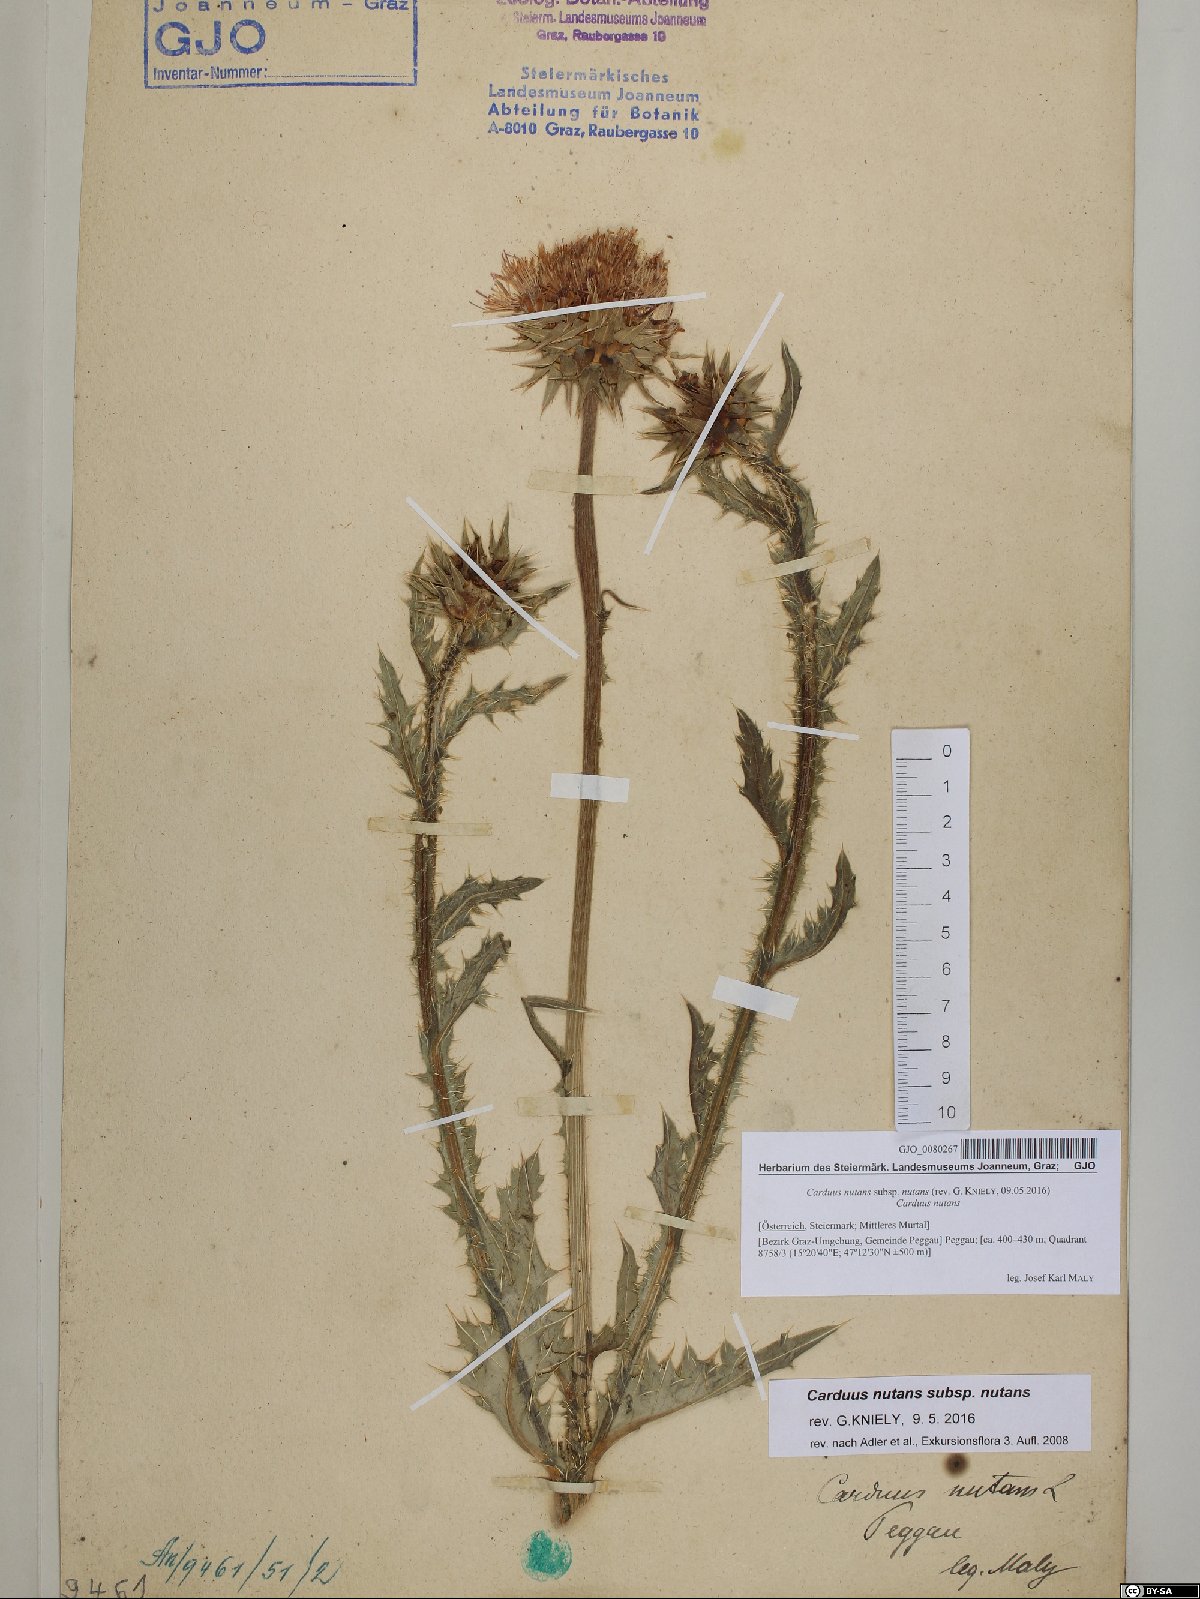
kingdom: Plantae
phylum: Tracheophyta
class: Magnoliopsida
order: Asterales
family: Asteraceae
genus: Carduus
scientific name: Carduus nutans
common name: Musk thistle
